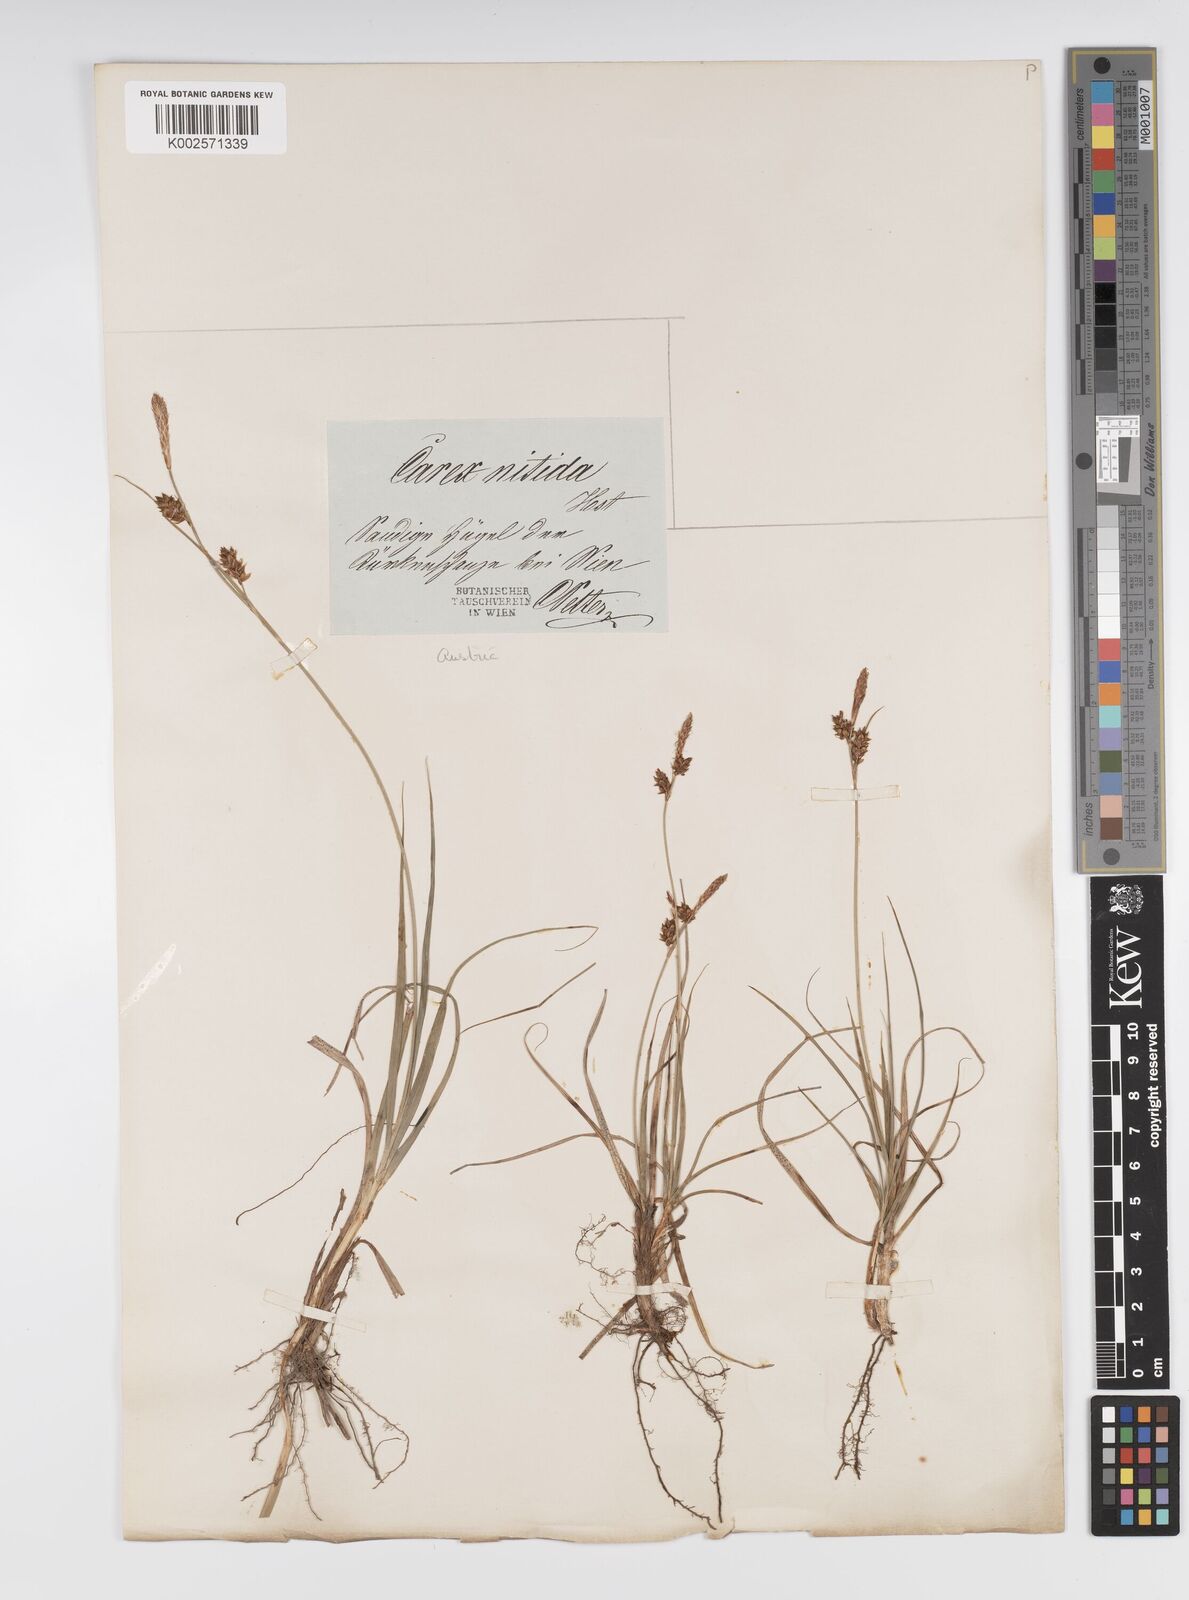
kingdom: Plantae
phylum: Tracheophyta
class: Liliopsida
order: Poales
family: Cyperaceae
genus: Carex
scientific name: Carex liparocarpos
